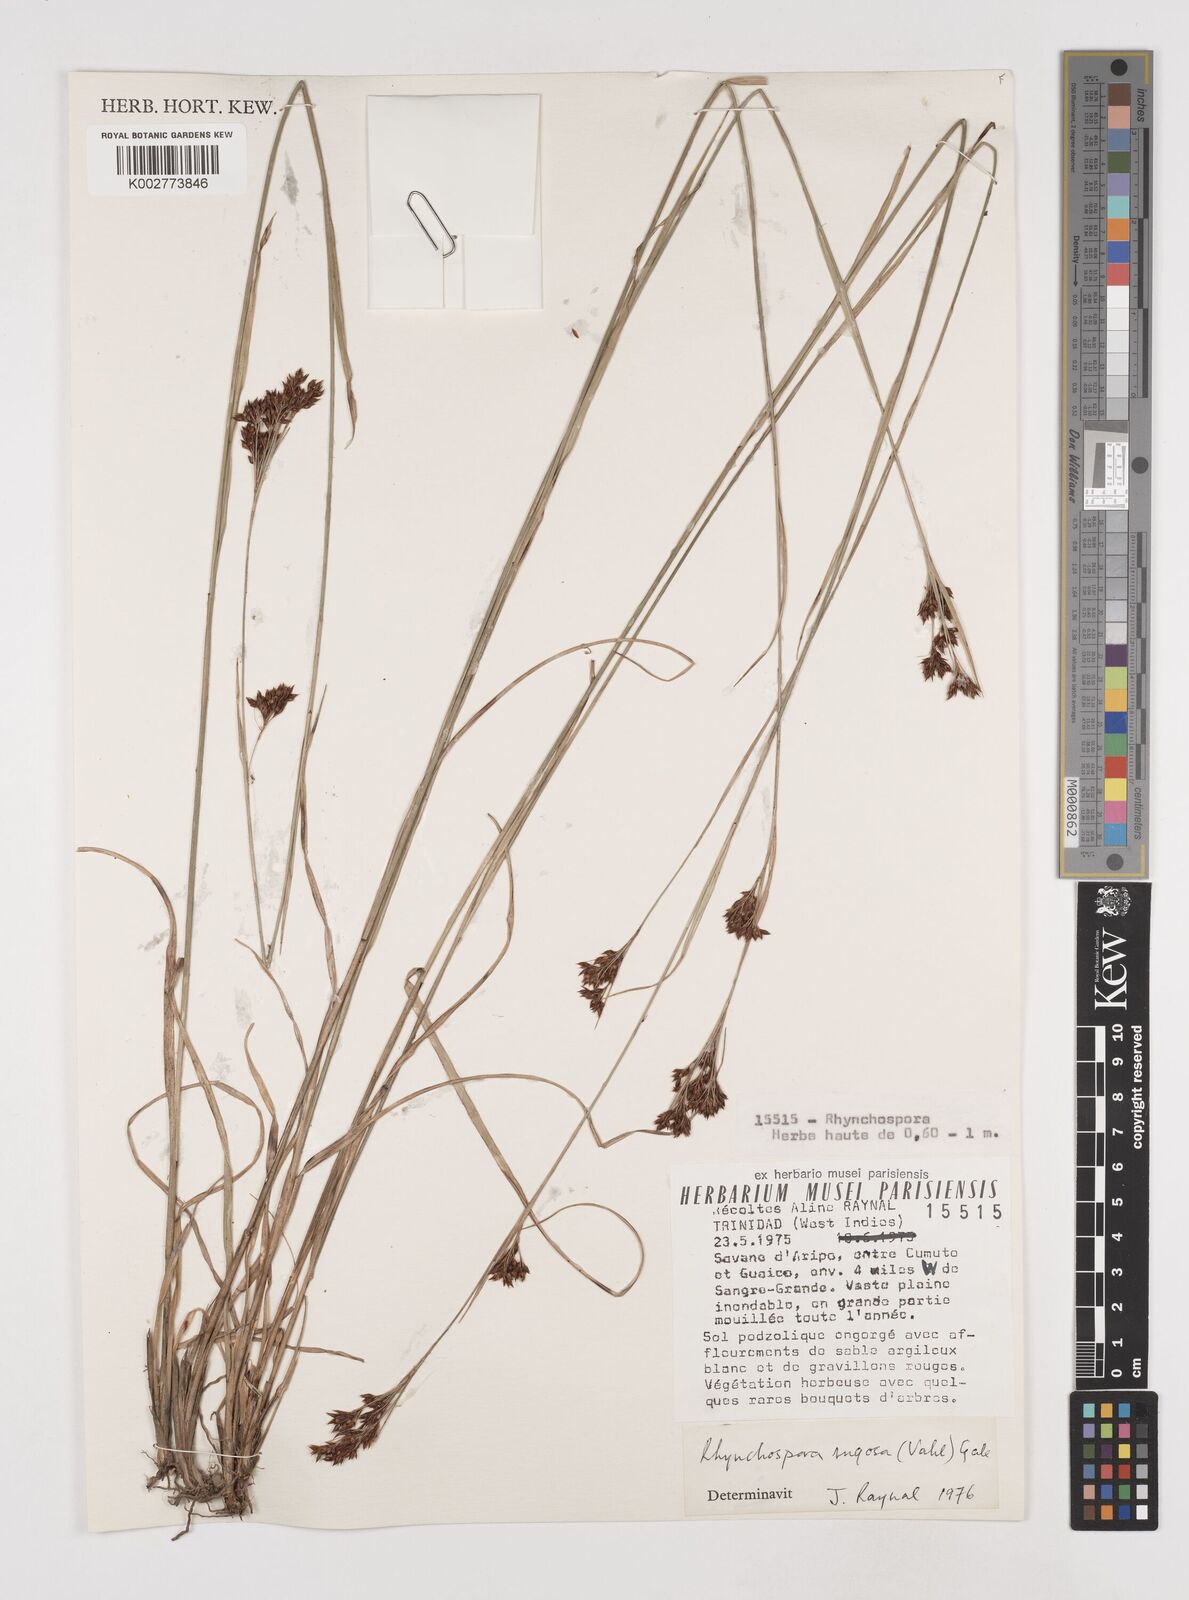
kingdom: Plantae
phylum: Tracheophyta
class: Liliopsida
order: Poales
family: Cyperaceae
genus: Rhynchospora
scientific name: Rhynchospora rugosa
